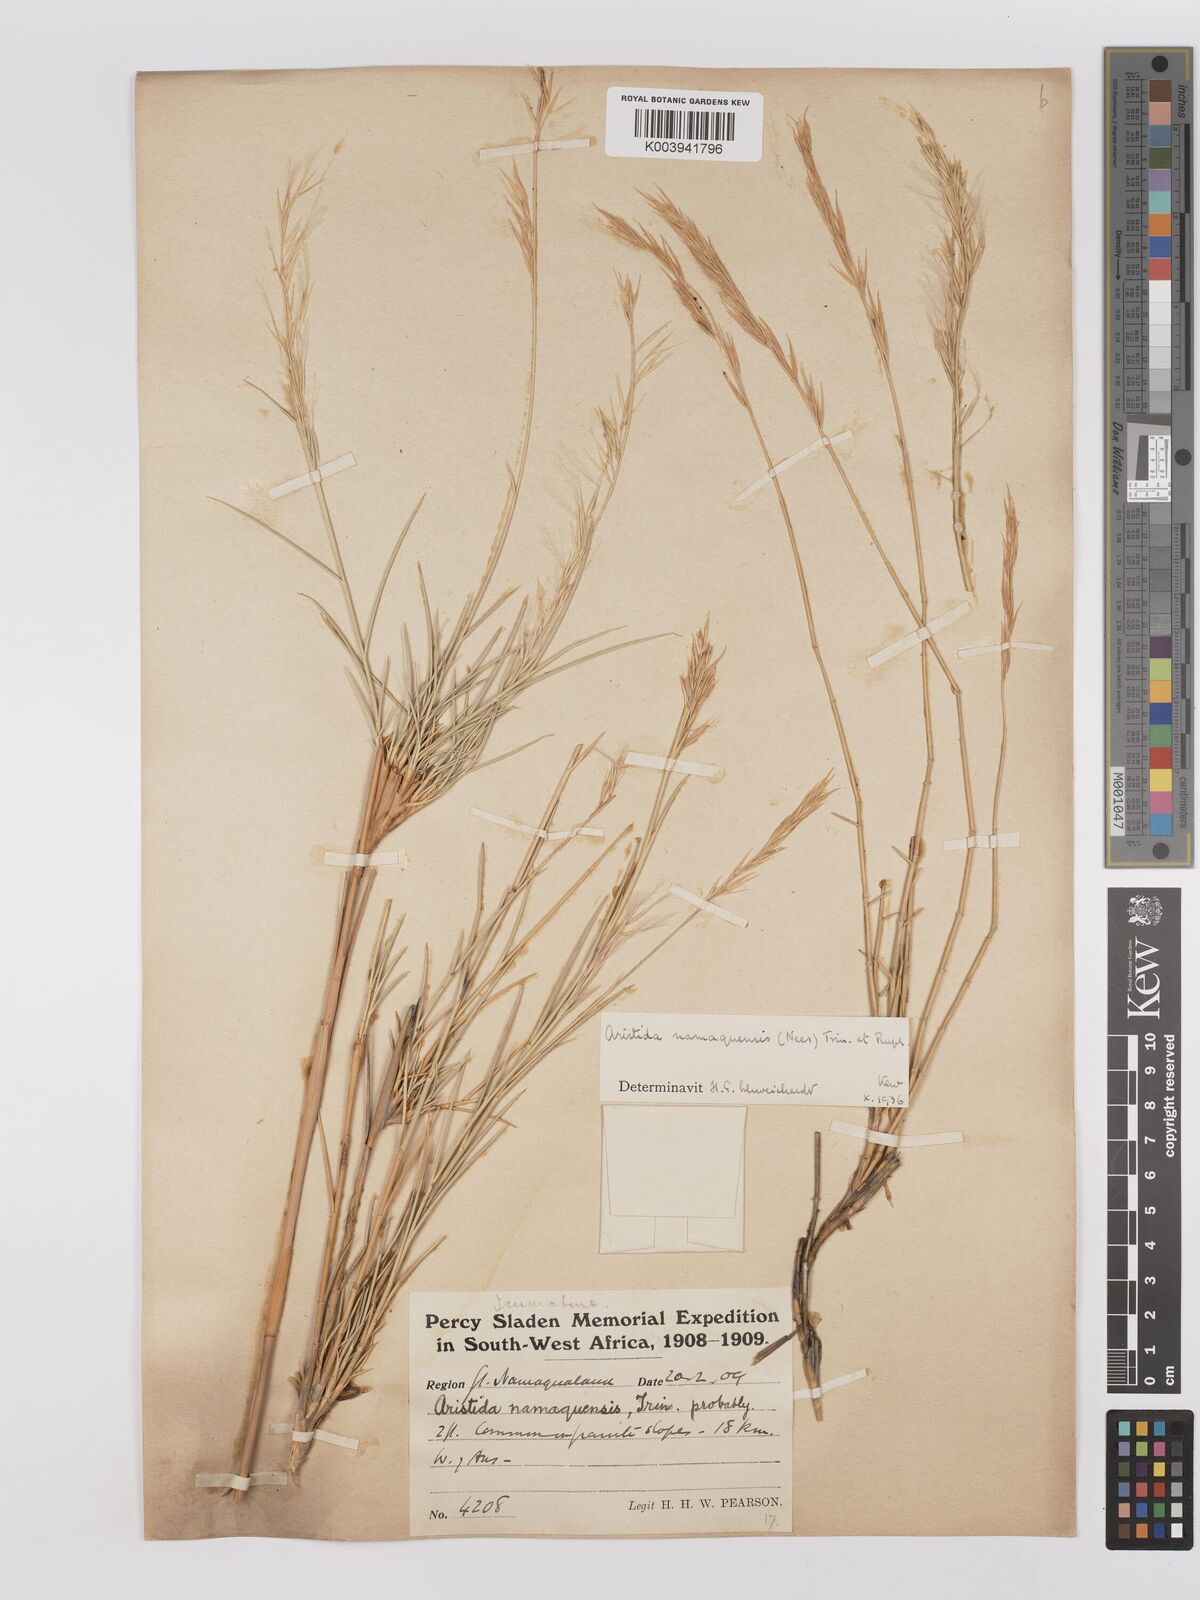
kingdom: Plantae
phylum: Tracheophyta
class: Liliopsida
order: Poales
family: Poaceae
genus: Stipagrostis
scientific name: Stipagrostis namaquensis
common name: River bushman grass
